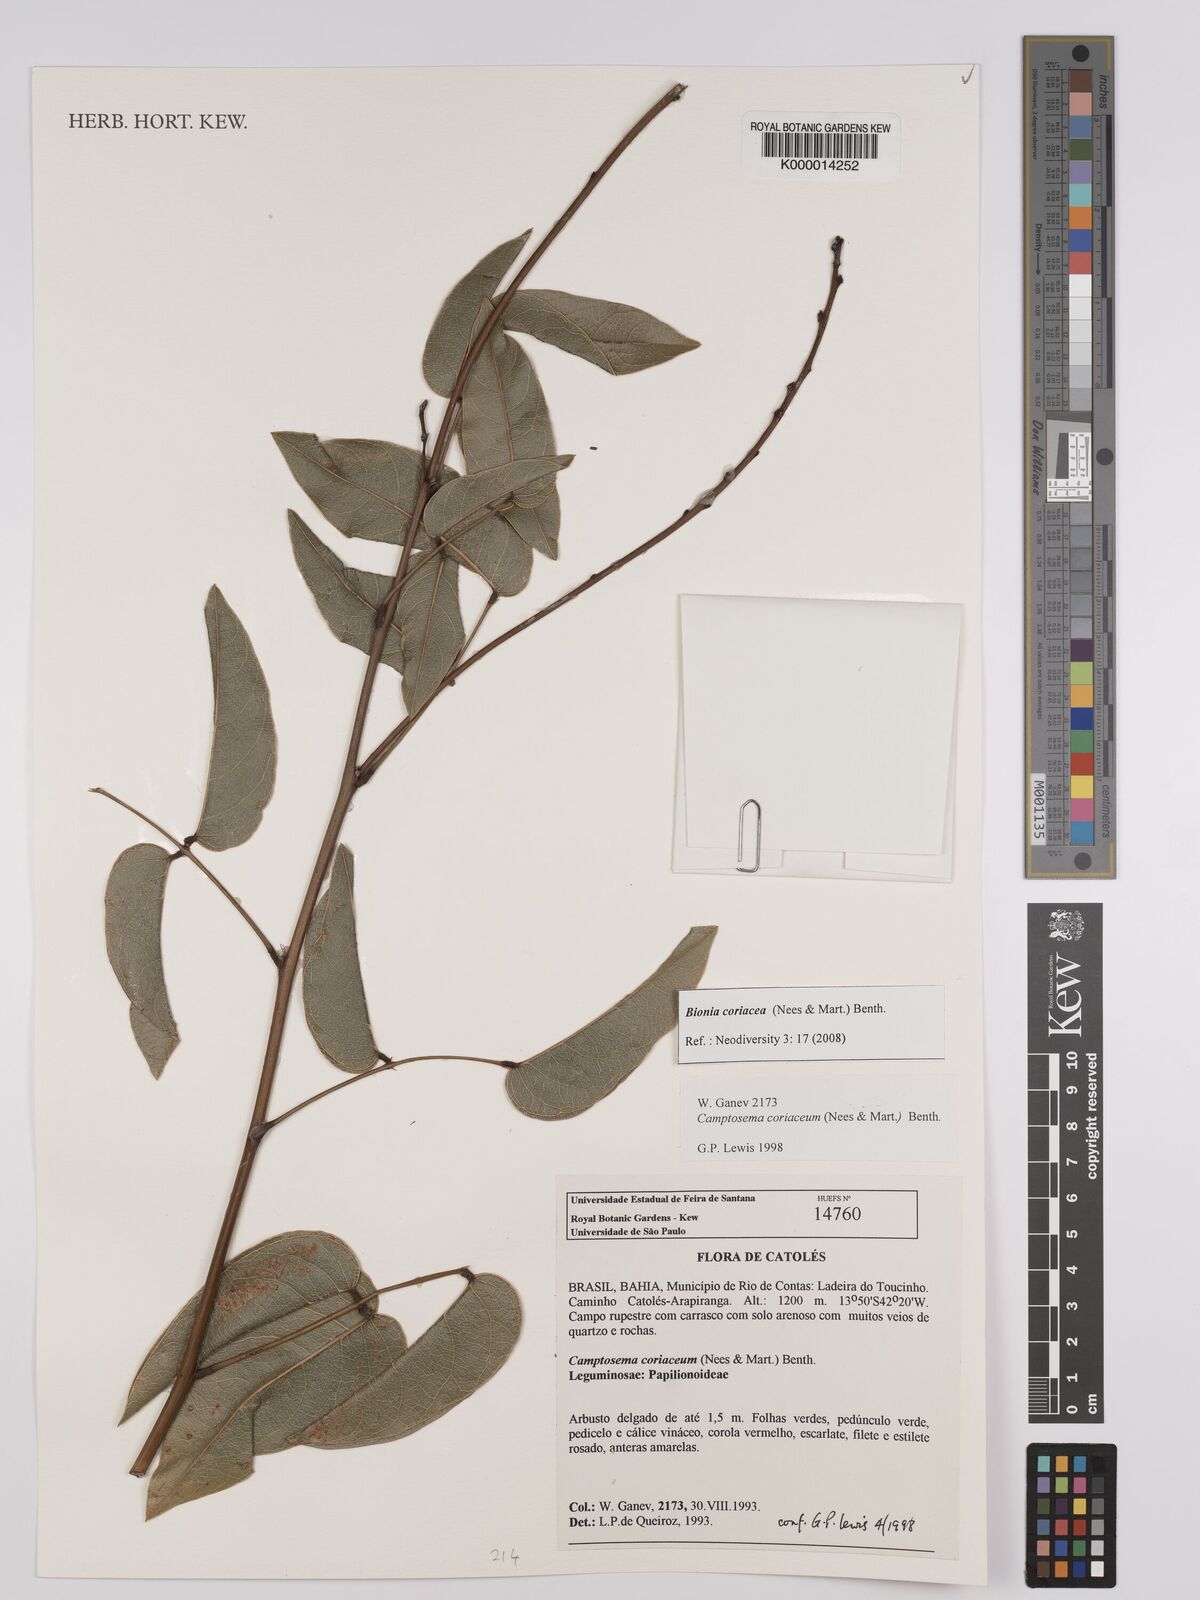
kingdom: Plantae
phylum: Tracheophyta
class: Magnoliopsida
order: Fabales
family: Fabaceae
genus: Camptosema
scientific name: Camptosema coriaceum
